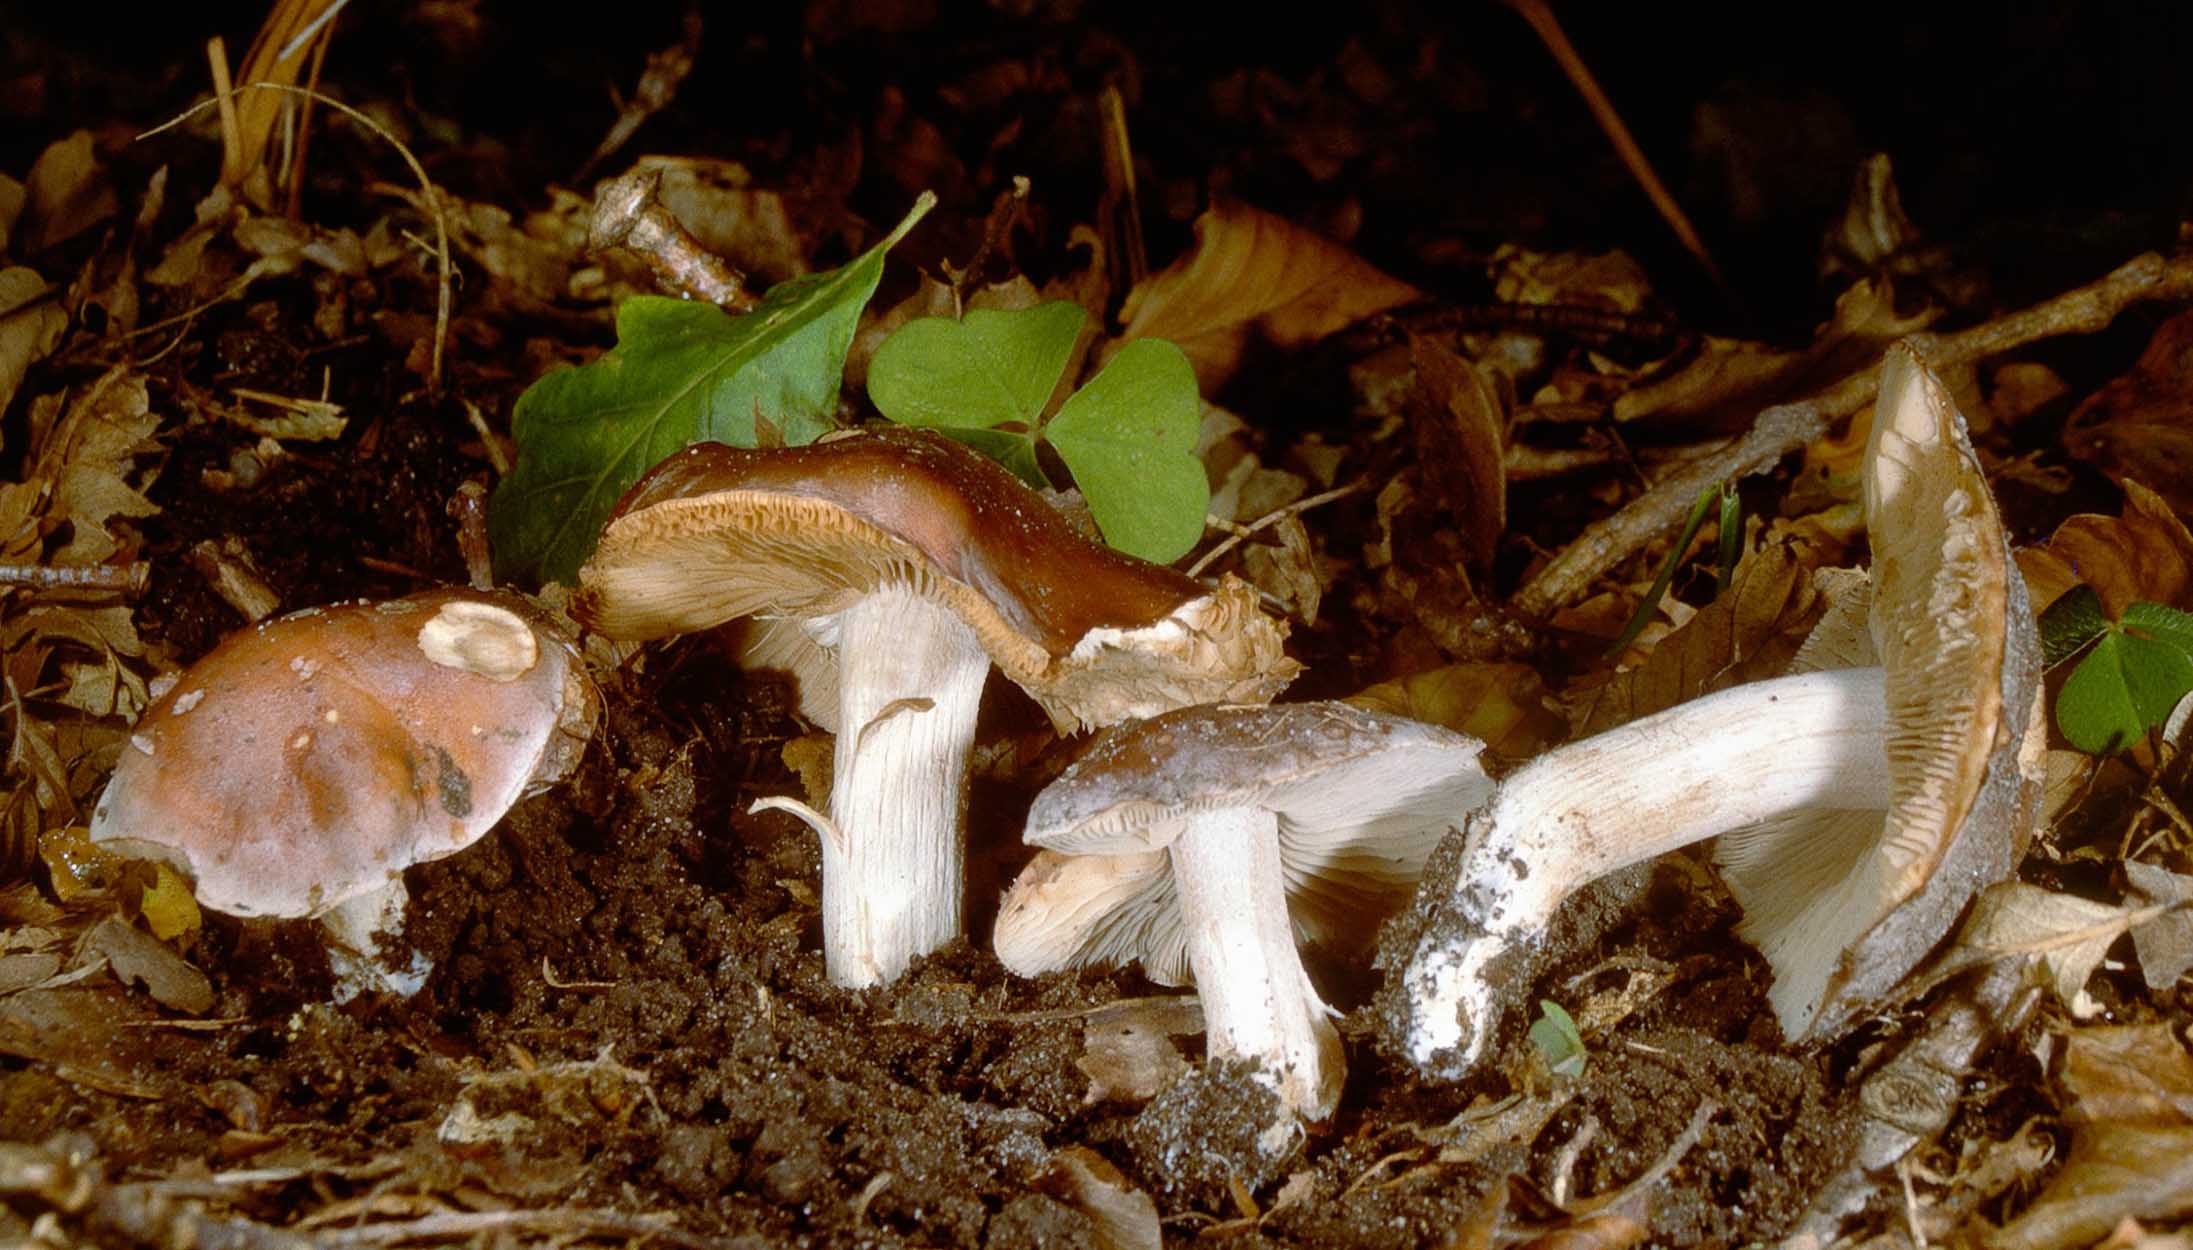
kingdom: Fungi
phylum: Basidiomycota
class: Agaricomycetes
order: Agaricales
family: Hymenogastraceae
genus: Hebeloma
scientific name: Hebeloma theobrominum
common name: rødbrun tåreblad
